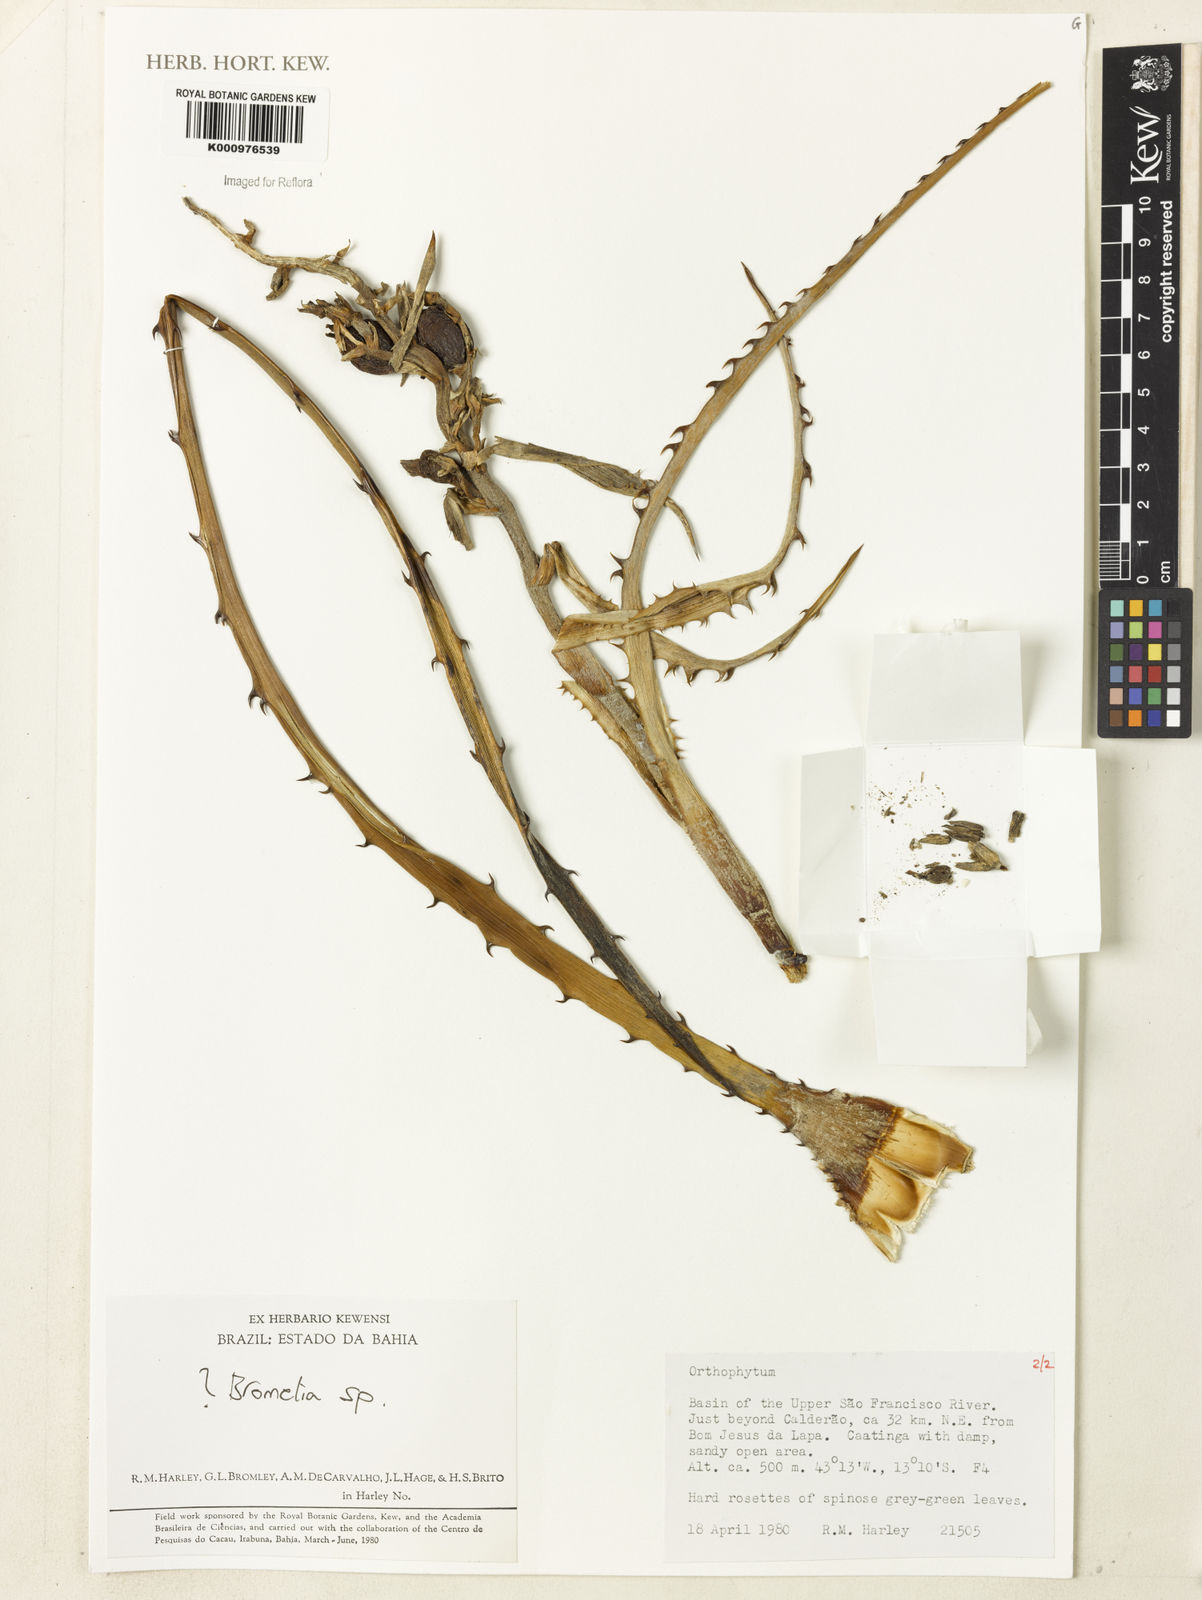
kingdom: Plantae
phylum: Tracheophyta
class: Liliopsida
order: Poales
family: Bromeliaceae
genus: Bromelia
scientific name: Bromelia
